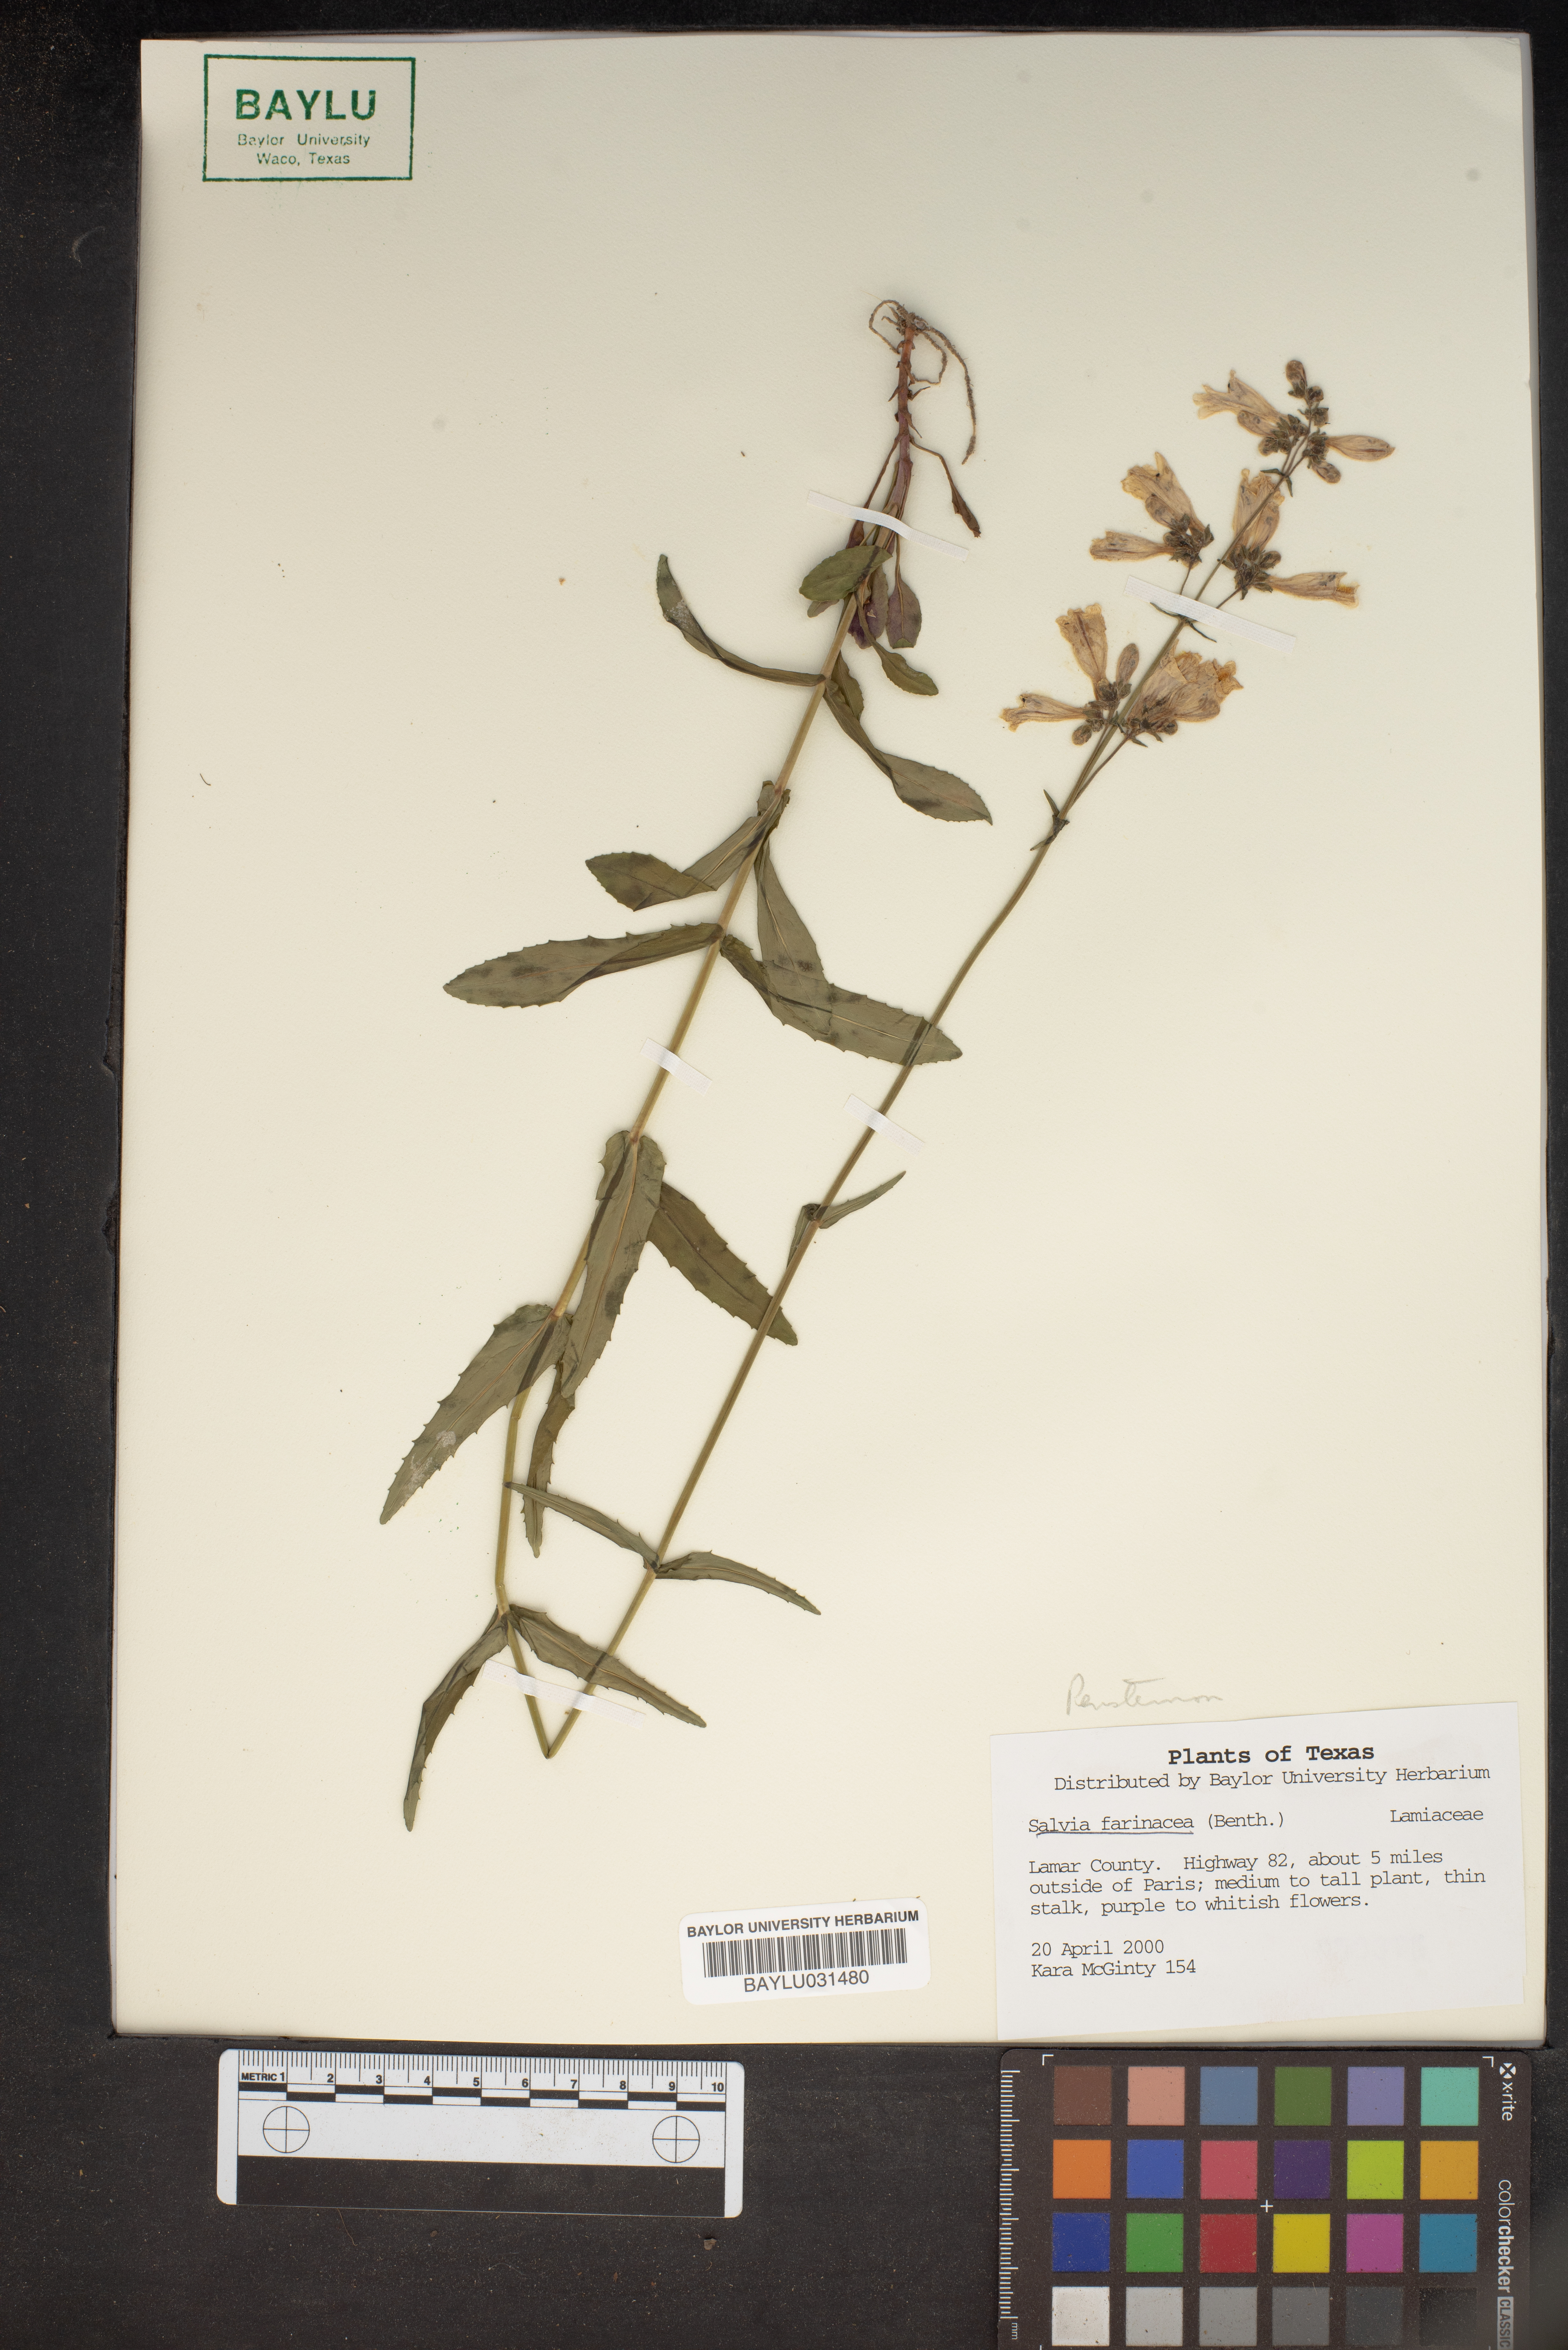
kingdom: Plantae
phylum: Tracheophyta
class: Magnoliopsida
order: Lamiales
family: Lamiaceae
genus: Salvia
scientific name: Salvia farinacea
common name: Mealy sage
